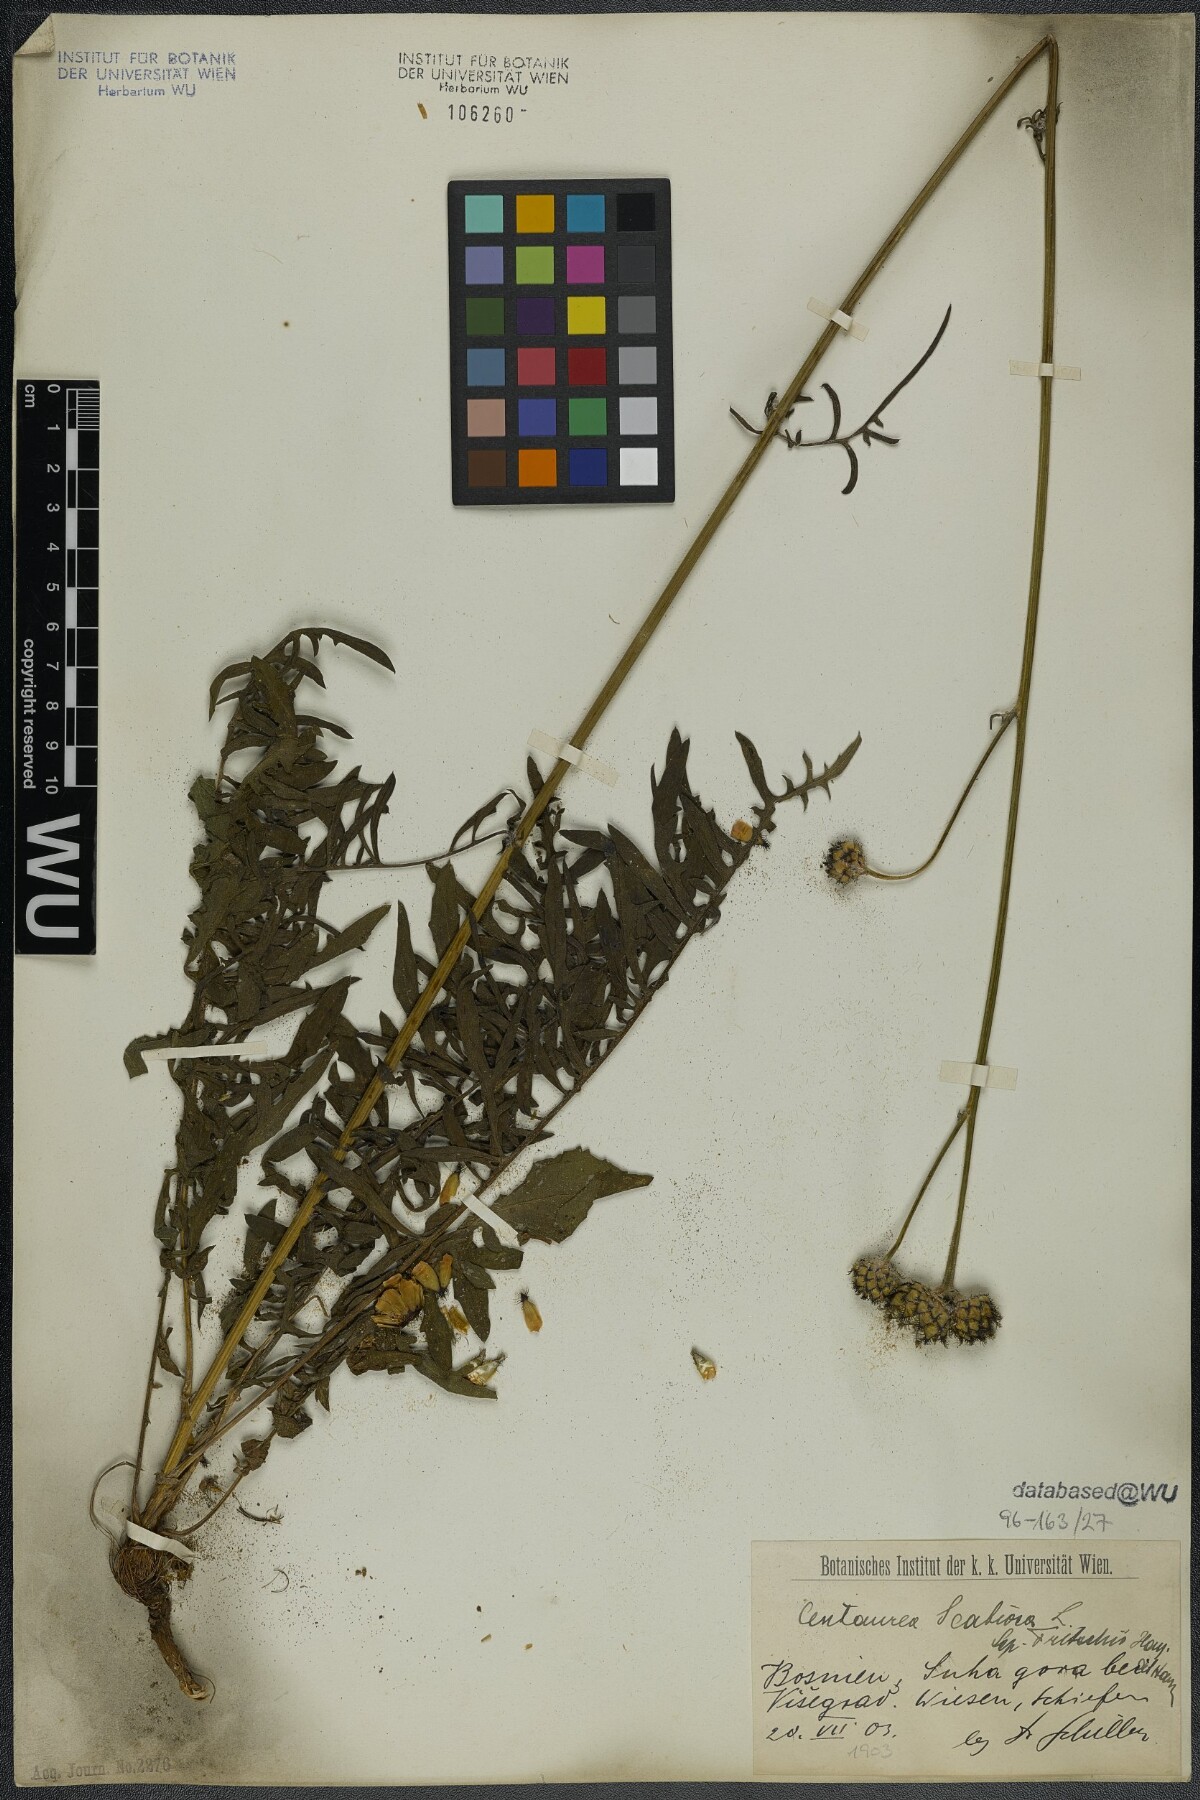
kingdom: Plantae
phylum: Tracheophyta
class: Magnoliopsida
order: Asterales
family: Asteraceae
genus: Centaurea
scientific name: Centaurea scabiosa
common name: Greater knapweed
